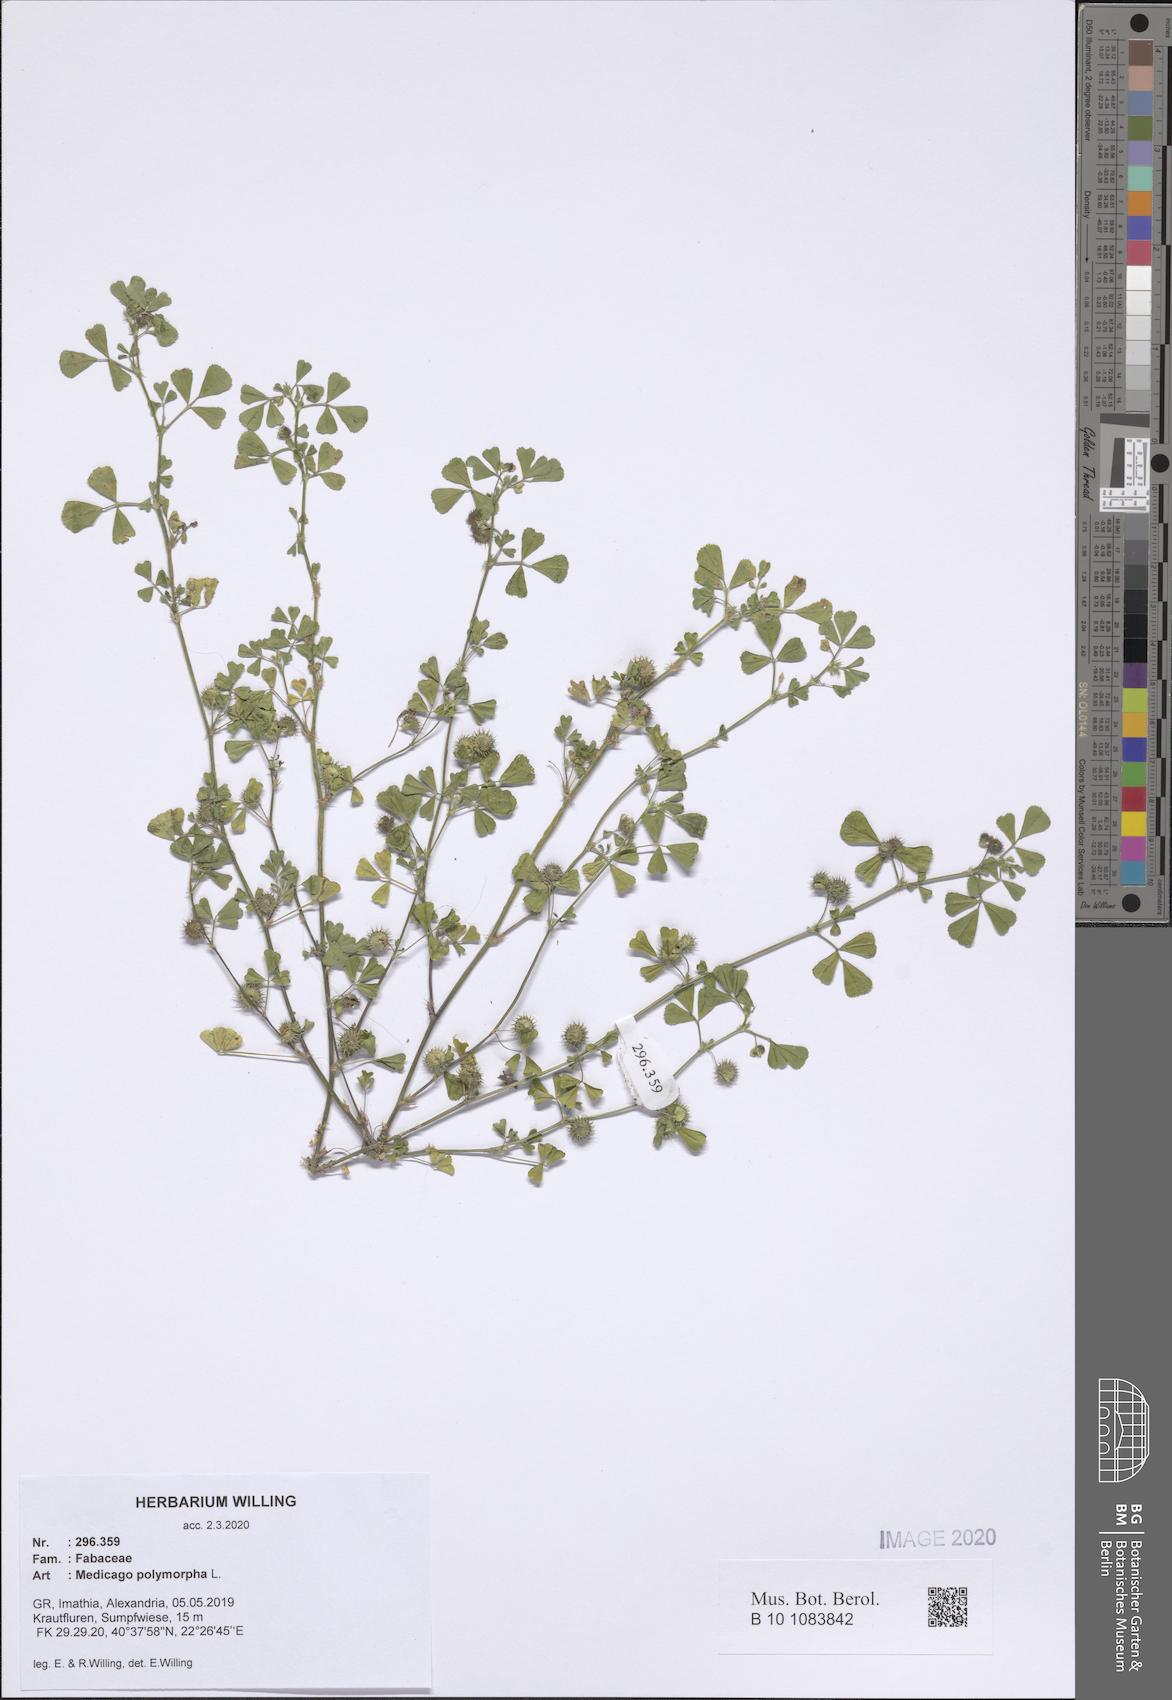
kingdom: Plantae
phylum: Tracheophyta
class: Magnoliopsida
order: Fabales
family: Fabaceae
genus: Medicago
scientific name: Medicago polymorpha
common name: Burclover
